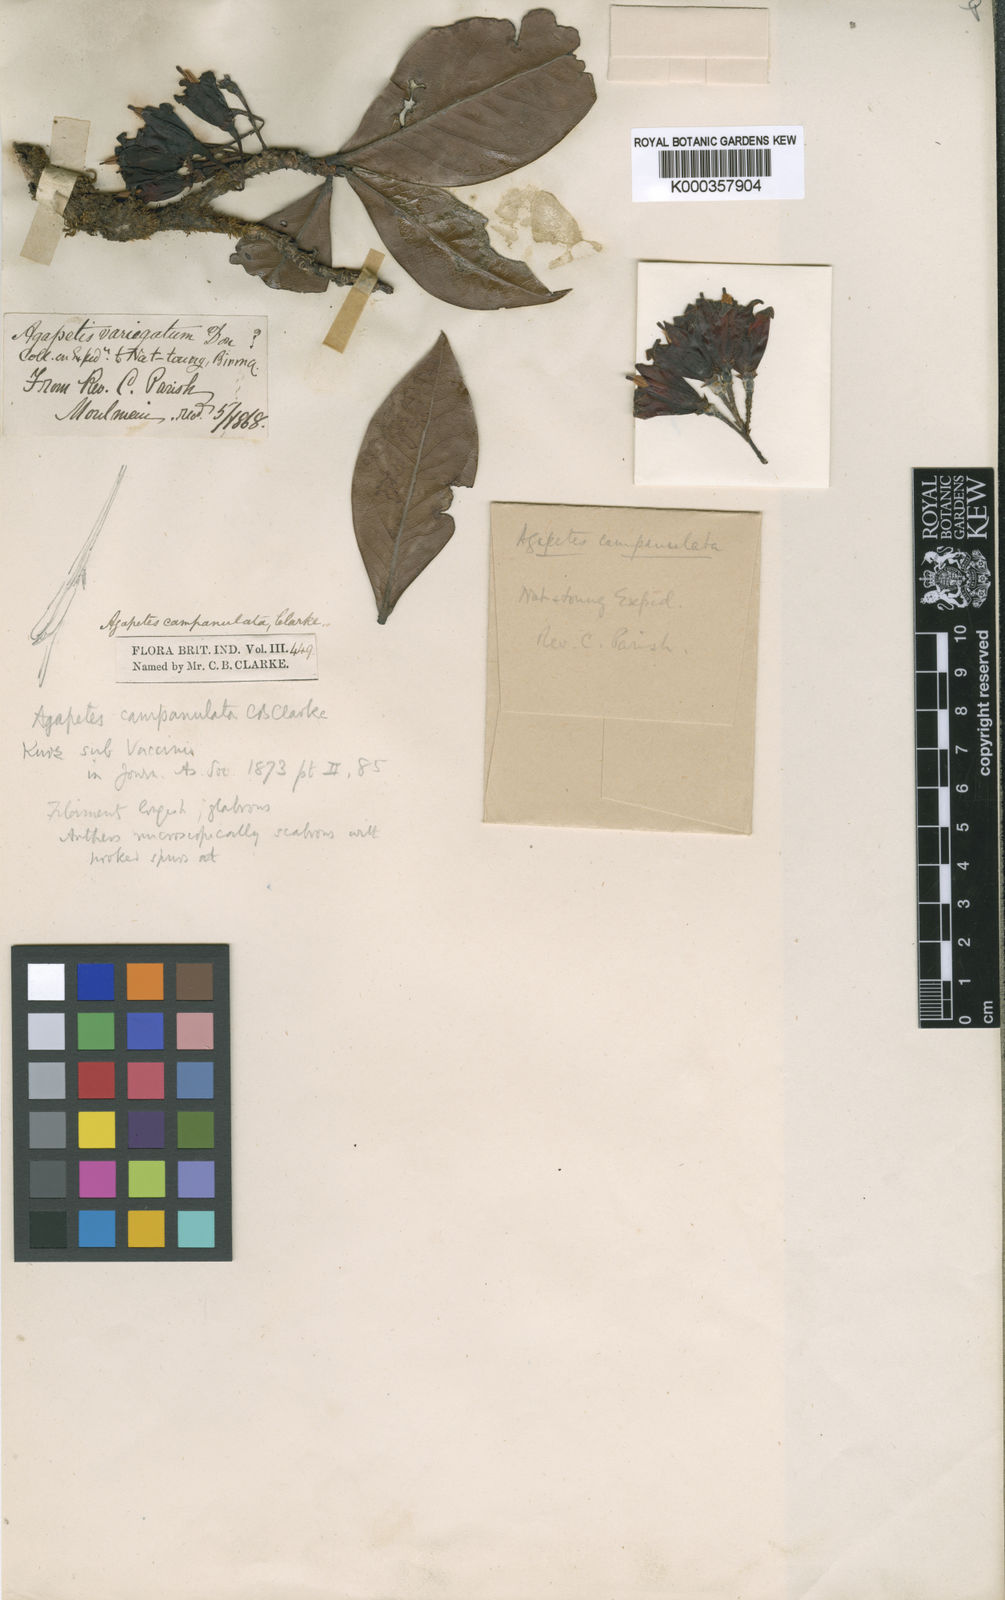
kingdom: Plantae
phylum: Tracheophyta
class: Magnoliopsida
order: Ericales
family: Ericaceae
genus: Agapetes
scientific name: Agapetes campanulata
